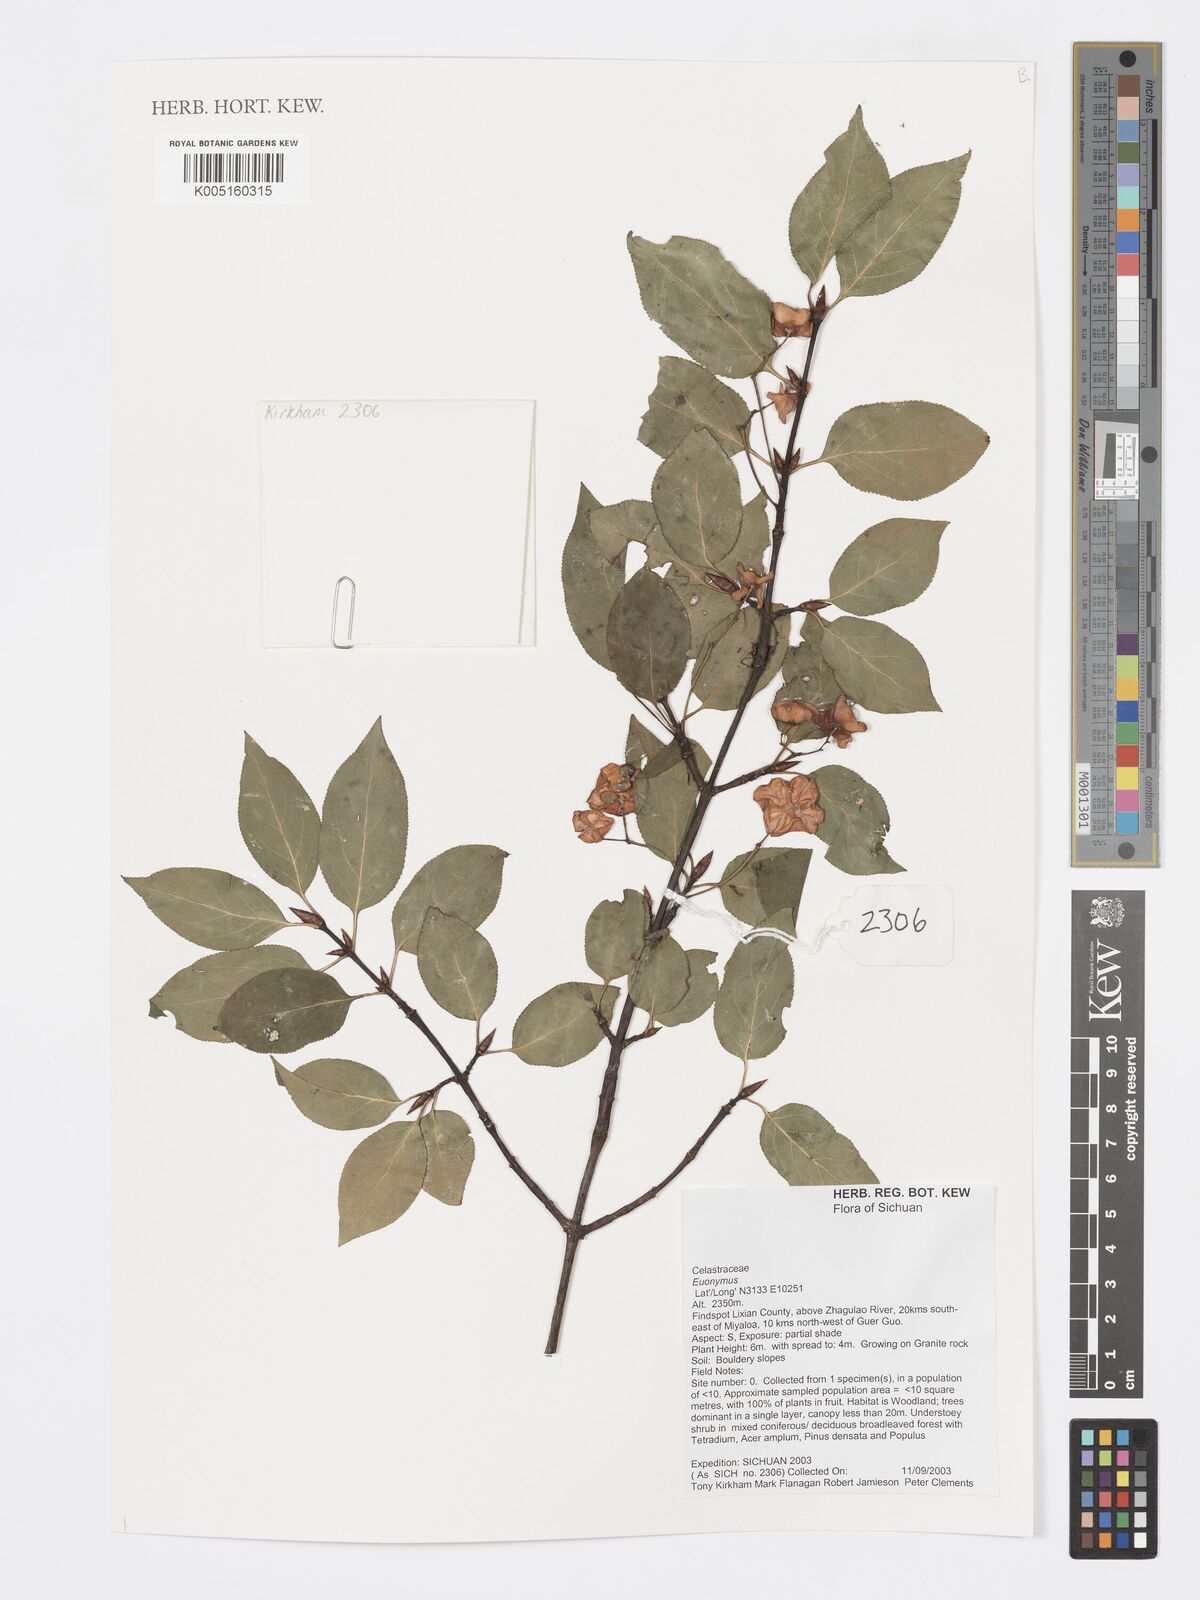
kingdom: Plantae
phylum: Tracheophyta
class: Magnoliopsida
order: Celastrales
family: Celastraceae
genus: Euonymus
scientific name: Euonymus
